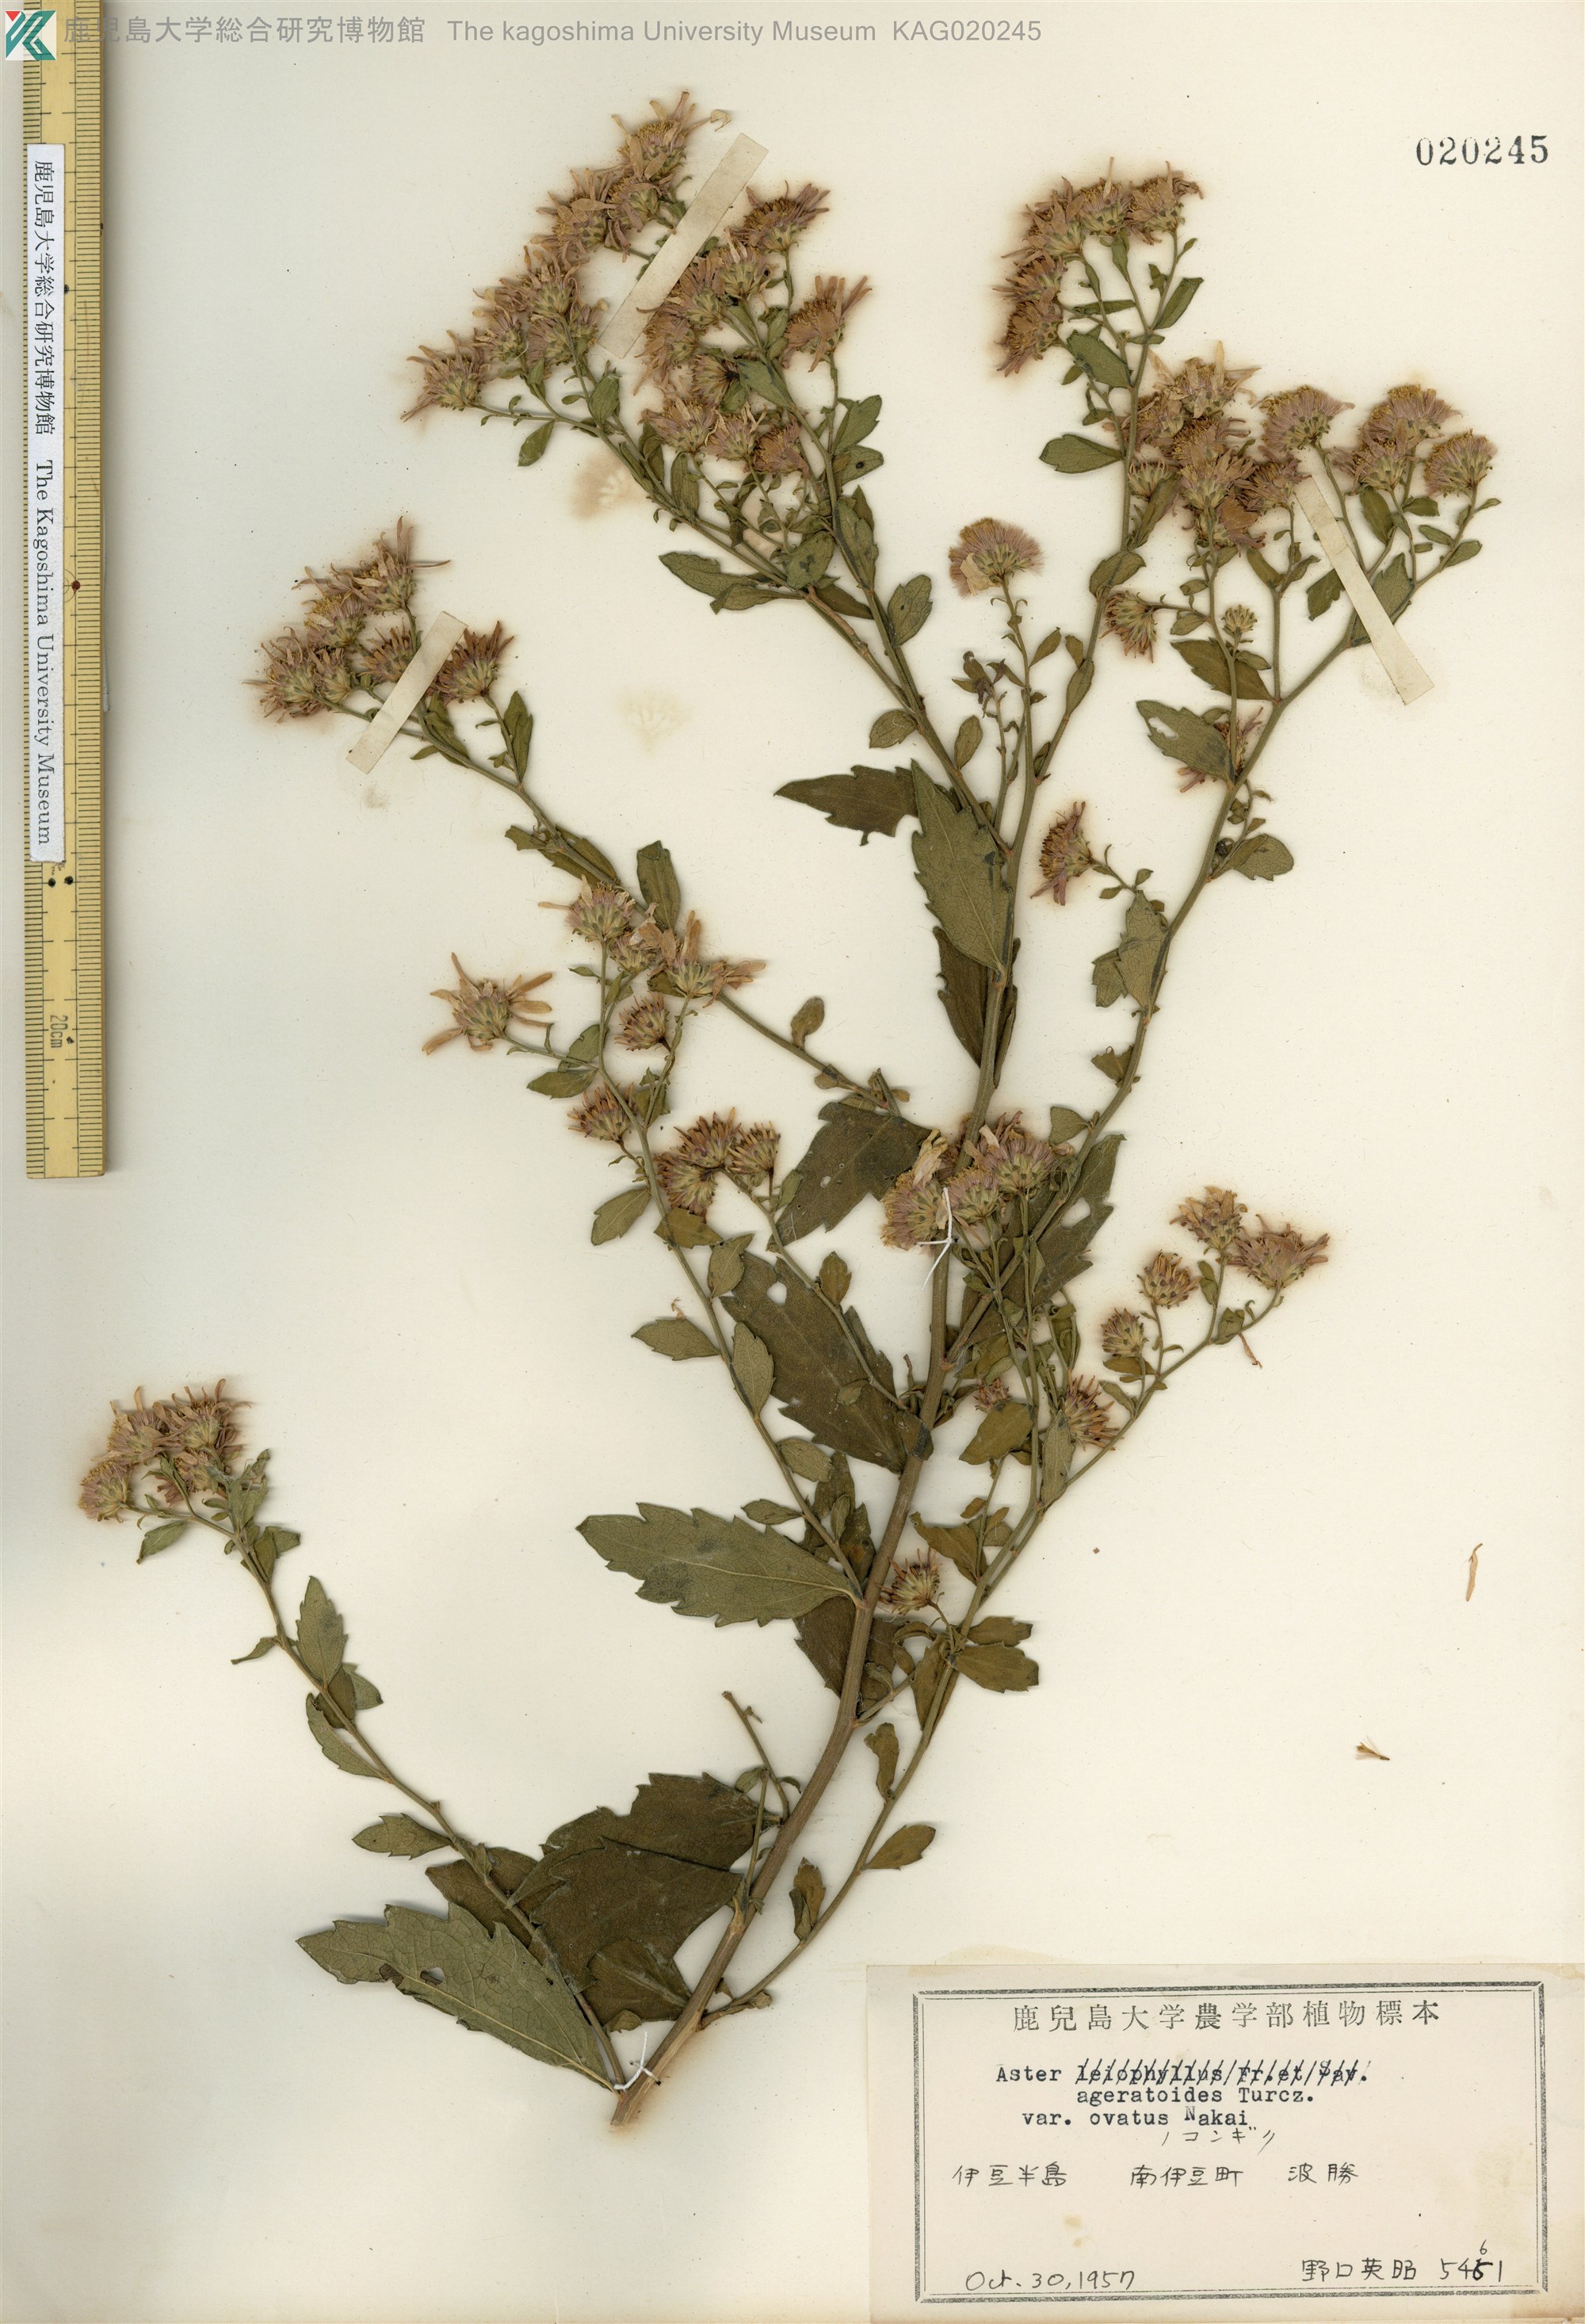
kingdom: Plantae
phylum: Tracheophyta
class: Magnoliopsida
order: Asterales
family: Asteraceae
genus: Aster
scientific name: Aster microcephalus
